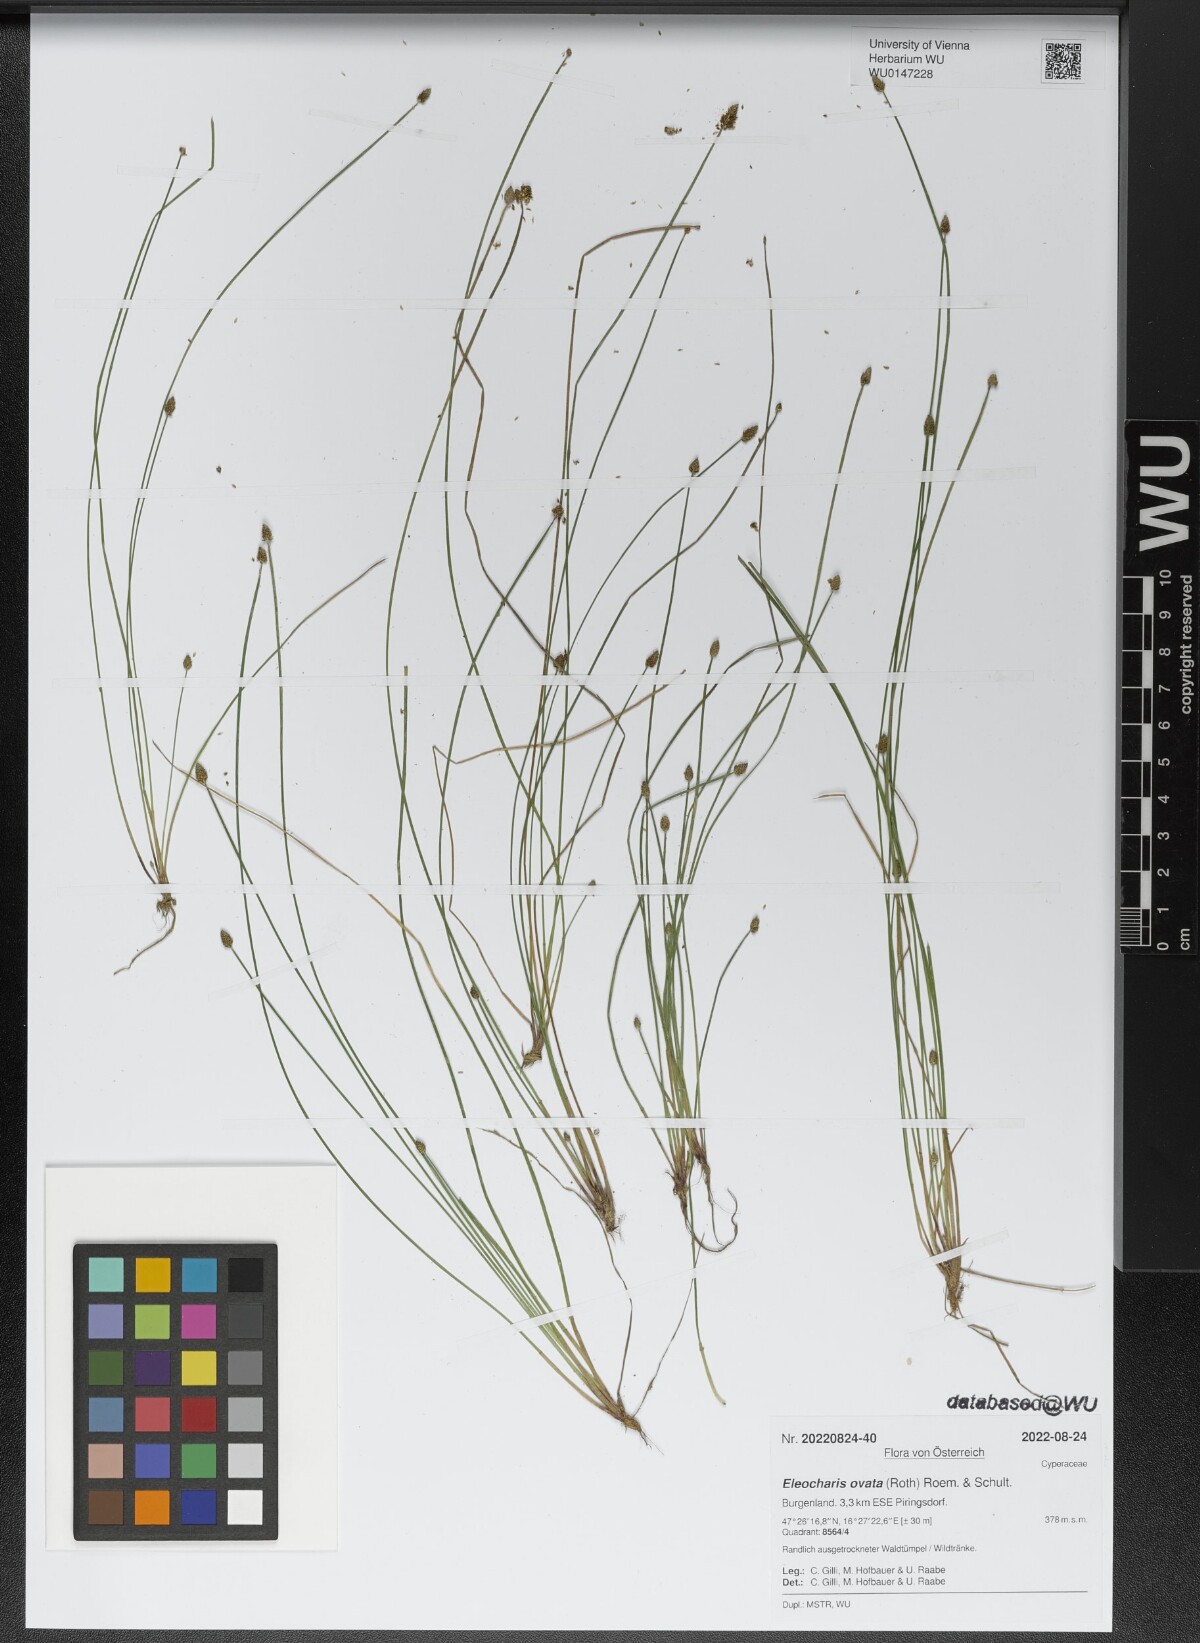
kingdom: Plantae
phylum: Tracheophyta
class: Liliopsida
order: Poales
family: Cyperaceae
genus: Eleocharis
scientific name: Eleocharis ovata
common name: Oval spike-rush
